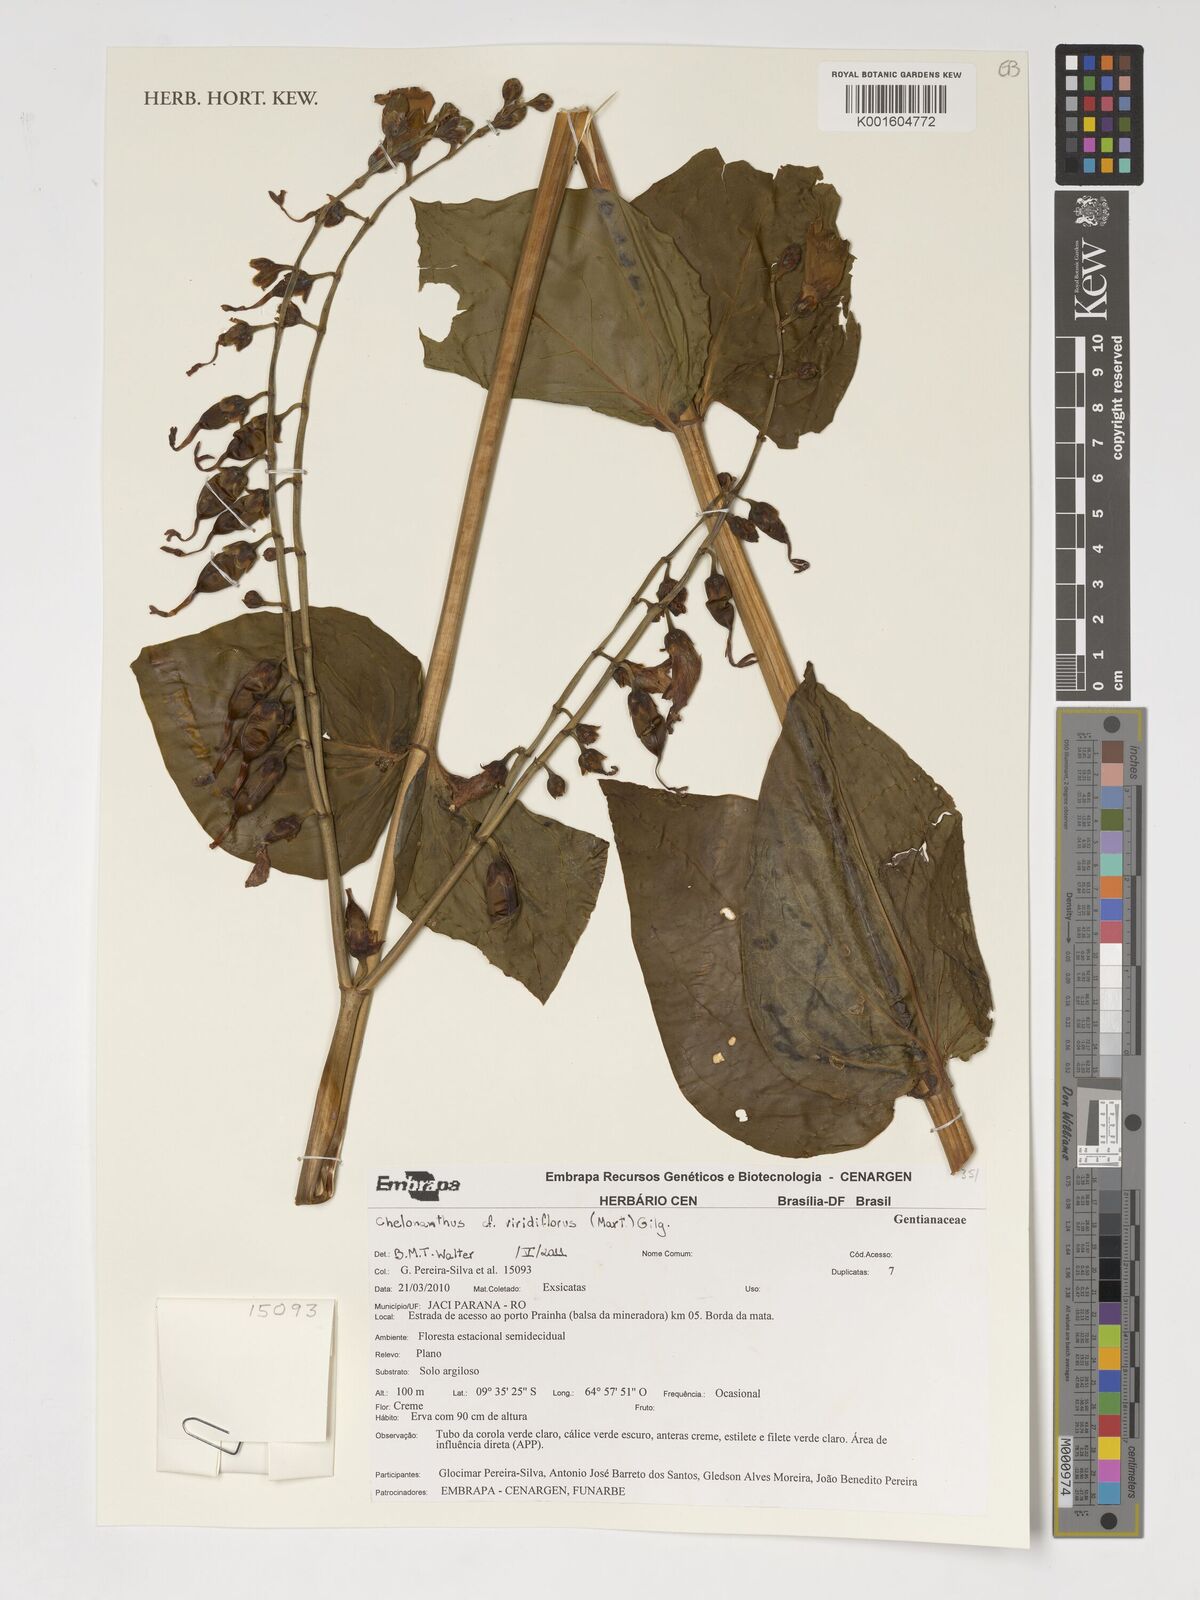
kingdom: Plantae
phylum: Tracheophyta
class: Magnoliopsida
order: Gentianales
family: Gentianaceae
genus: Chelonanthus
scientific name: Chelonanthus viridiflorus
